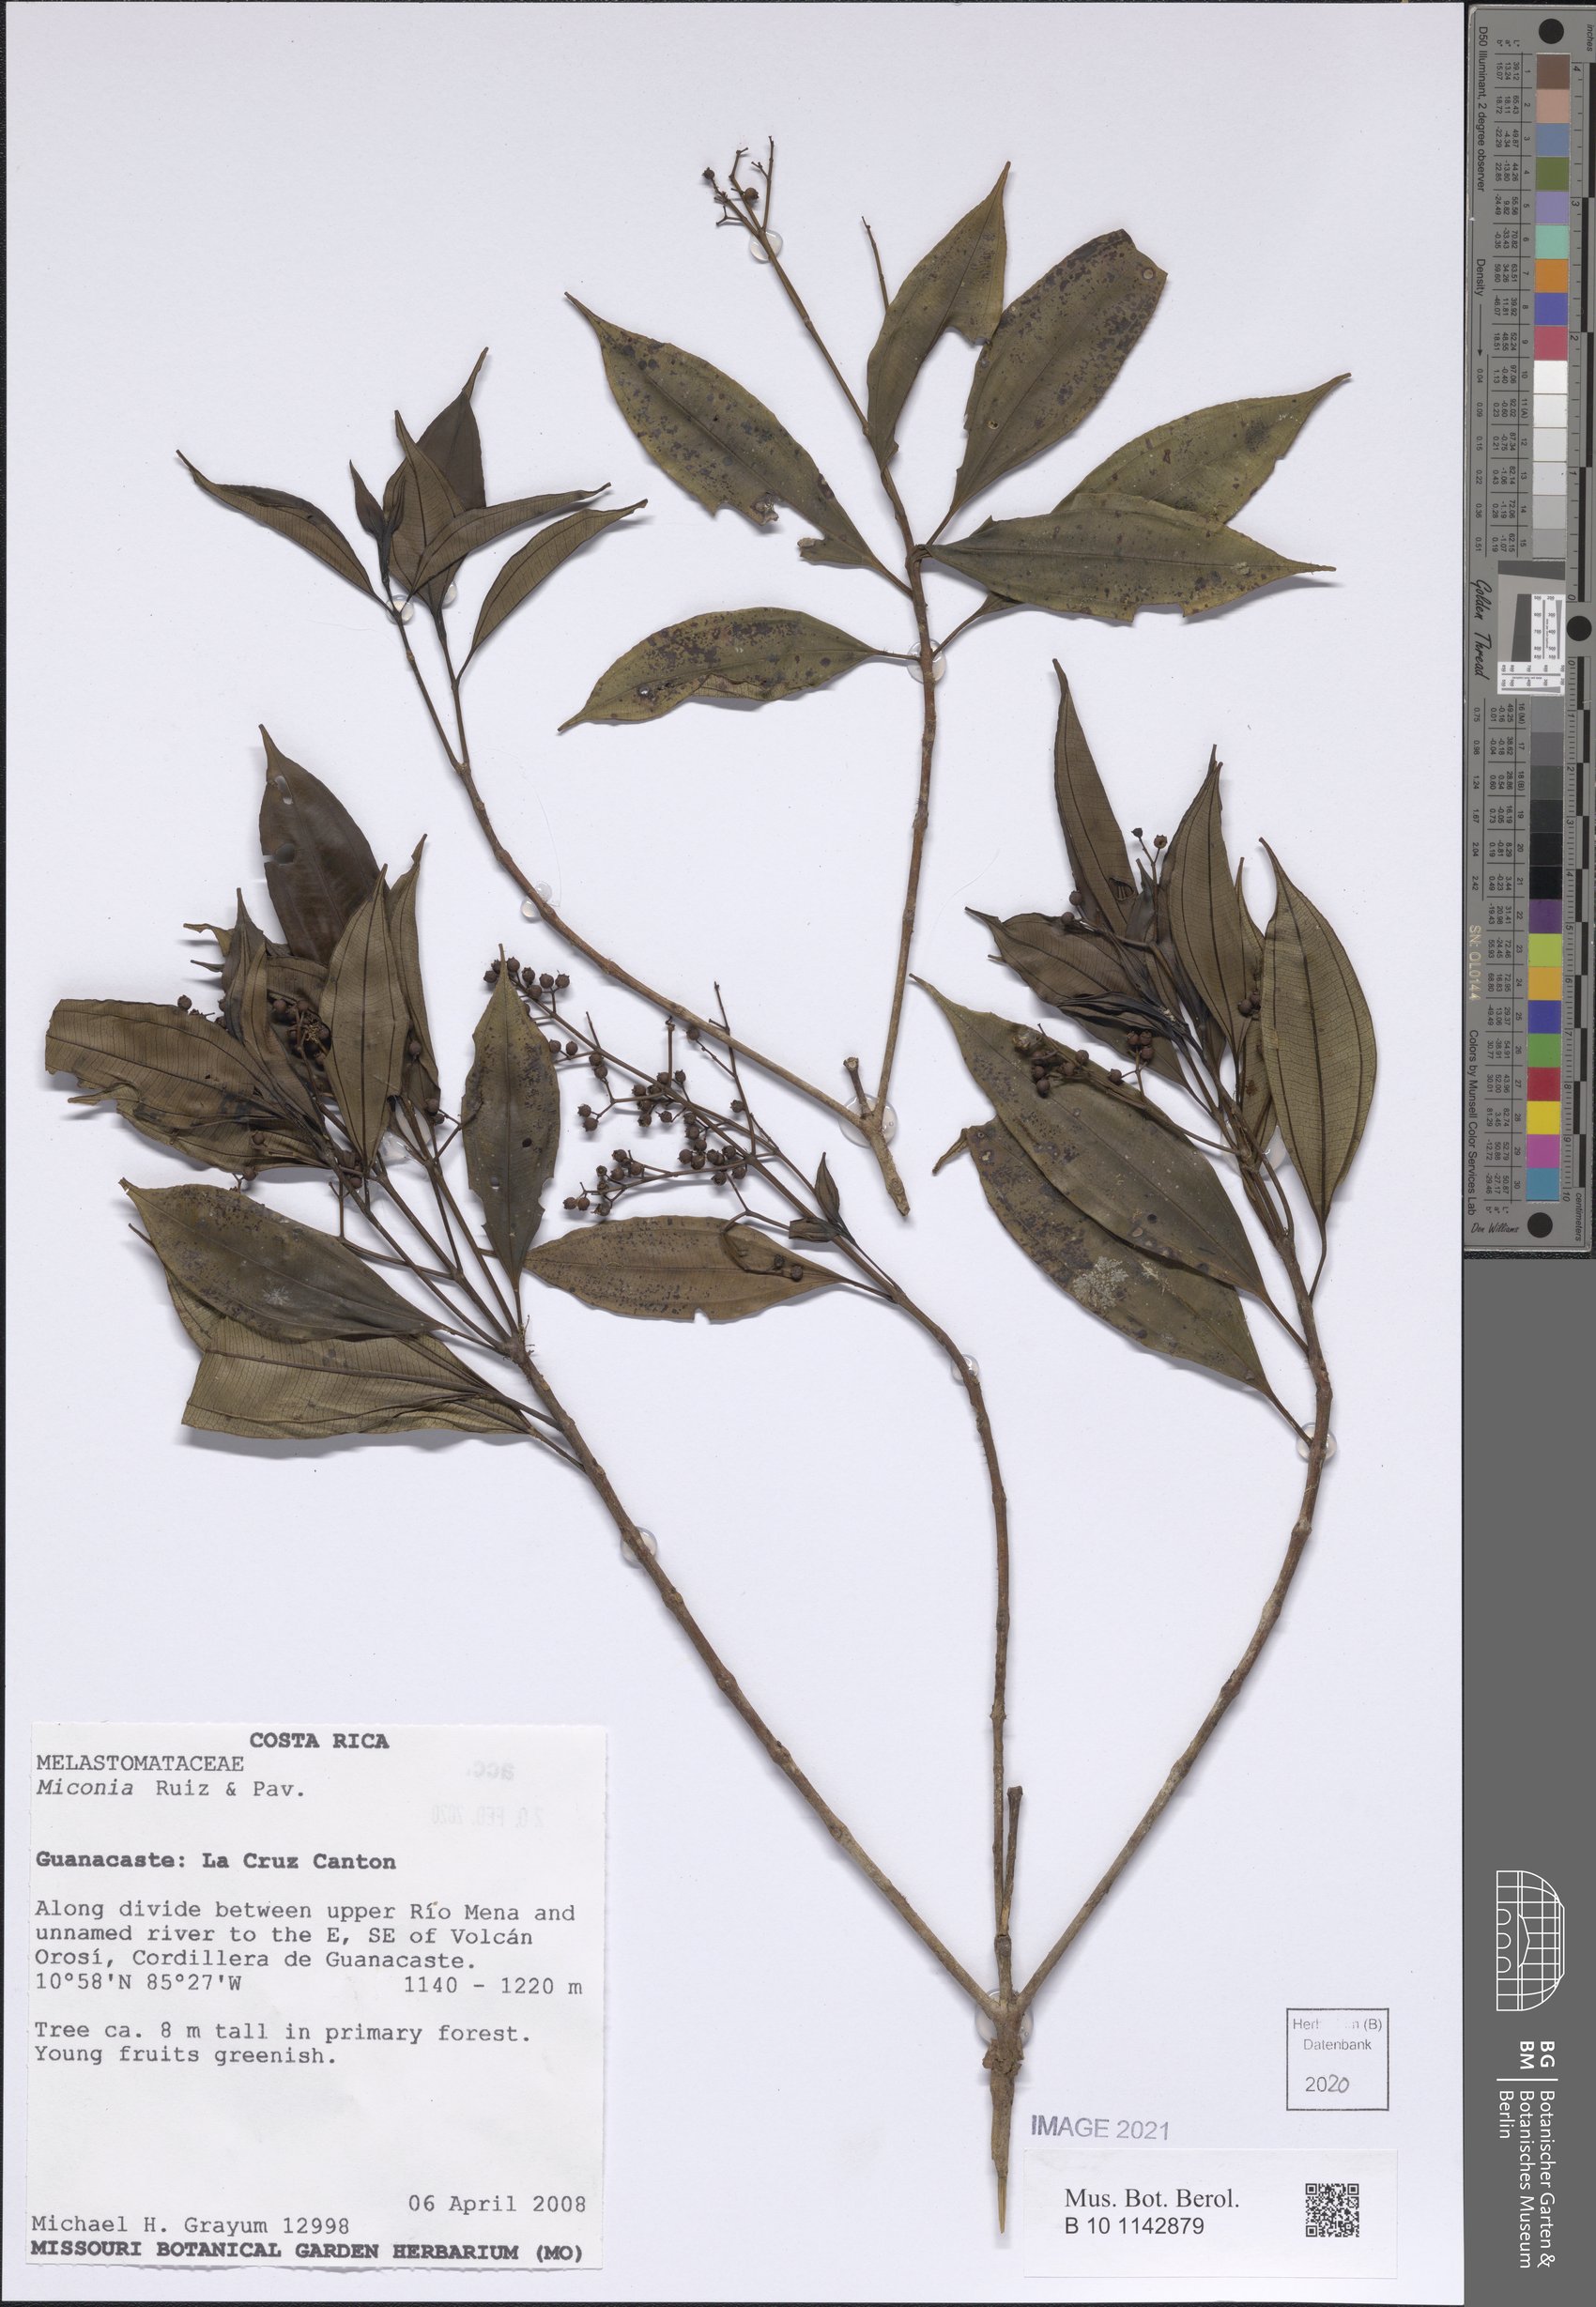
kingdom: Plantae
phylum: Tracheophyta
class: Magnoliopsida
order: Myrtales
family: Melastomataceae
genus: Miconia
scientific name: Miconia
